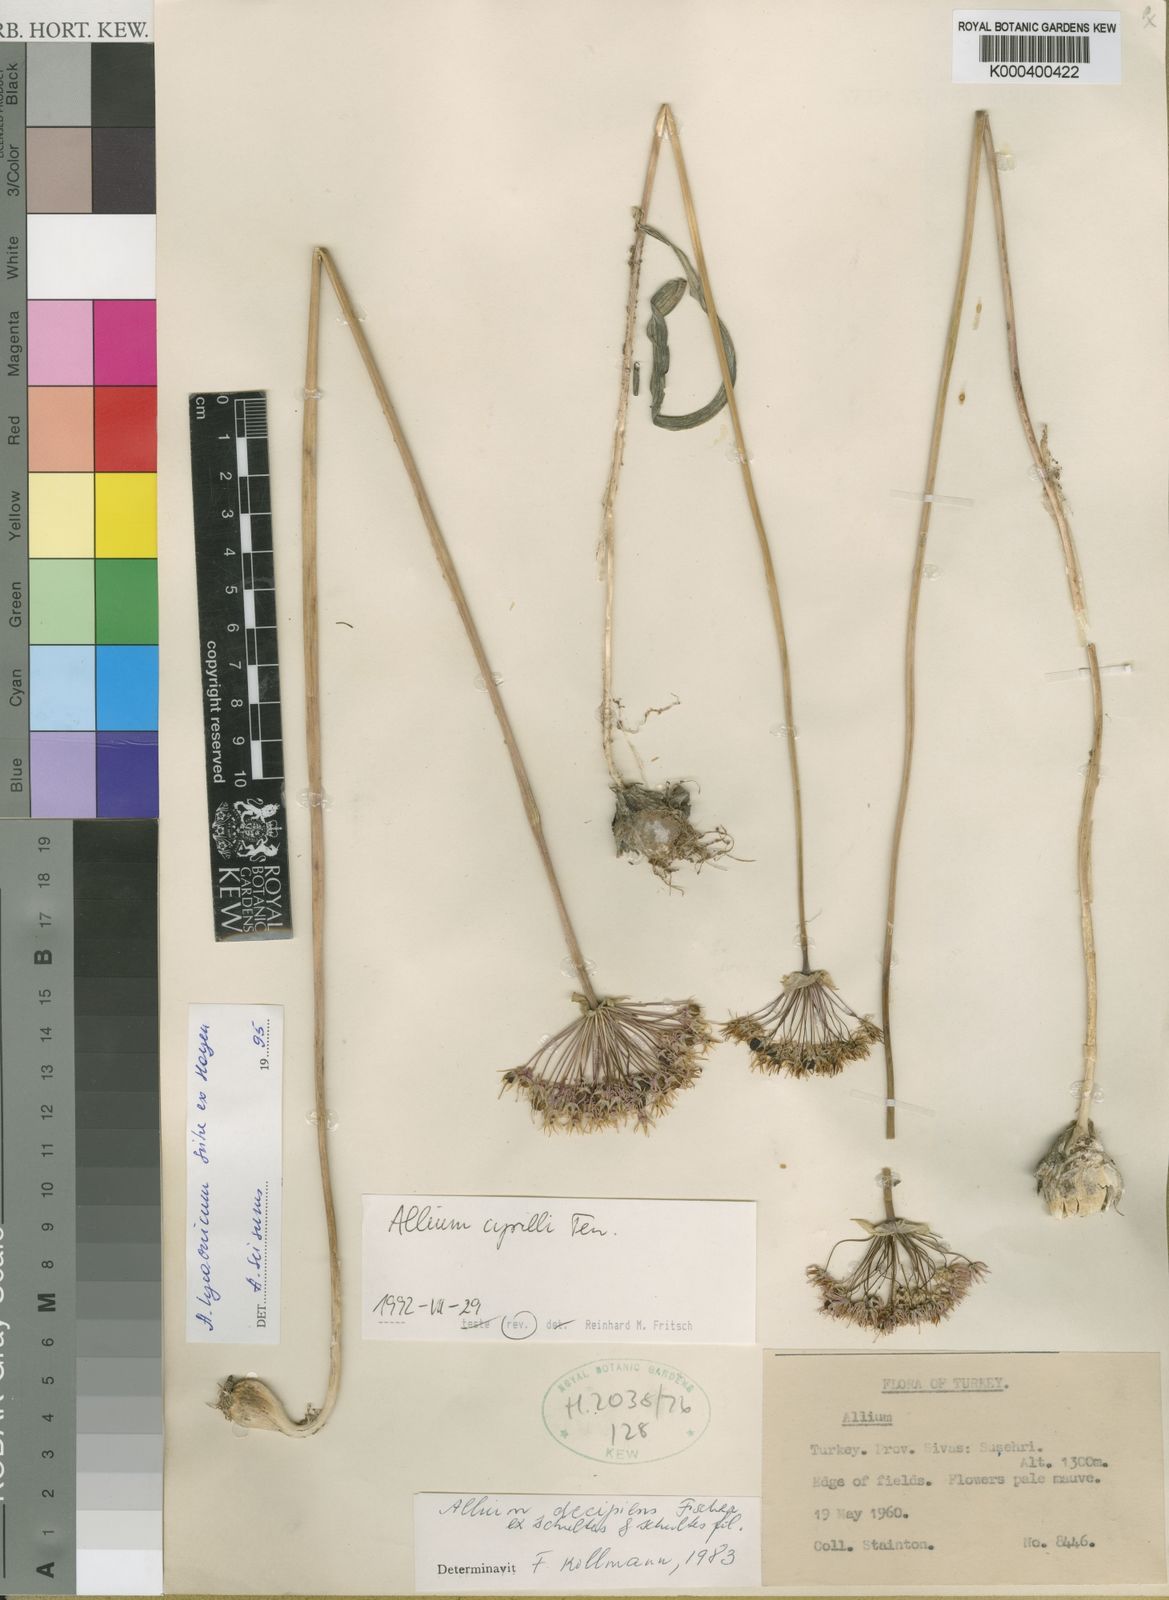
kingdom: Plantae
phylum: Tracheophyta
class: Liliopsida
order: Asparagales
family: Amaryllidaceae
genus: Allium
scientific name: Allium decipiens
